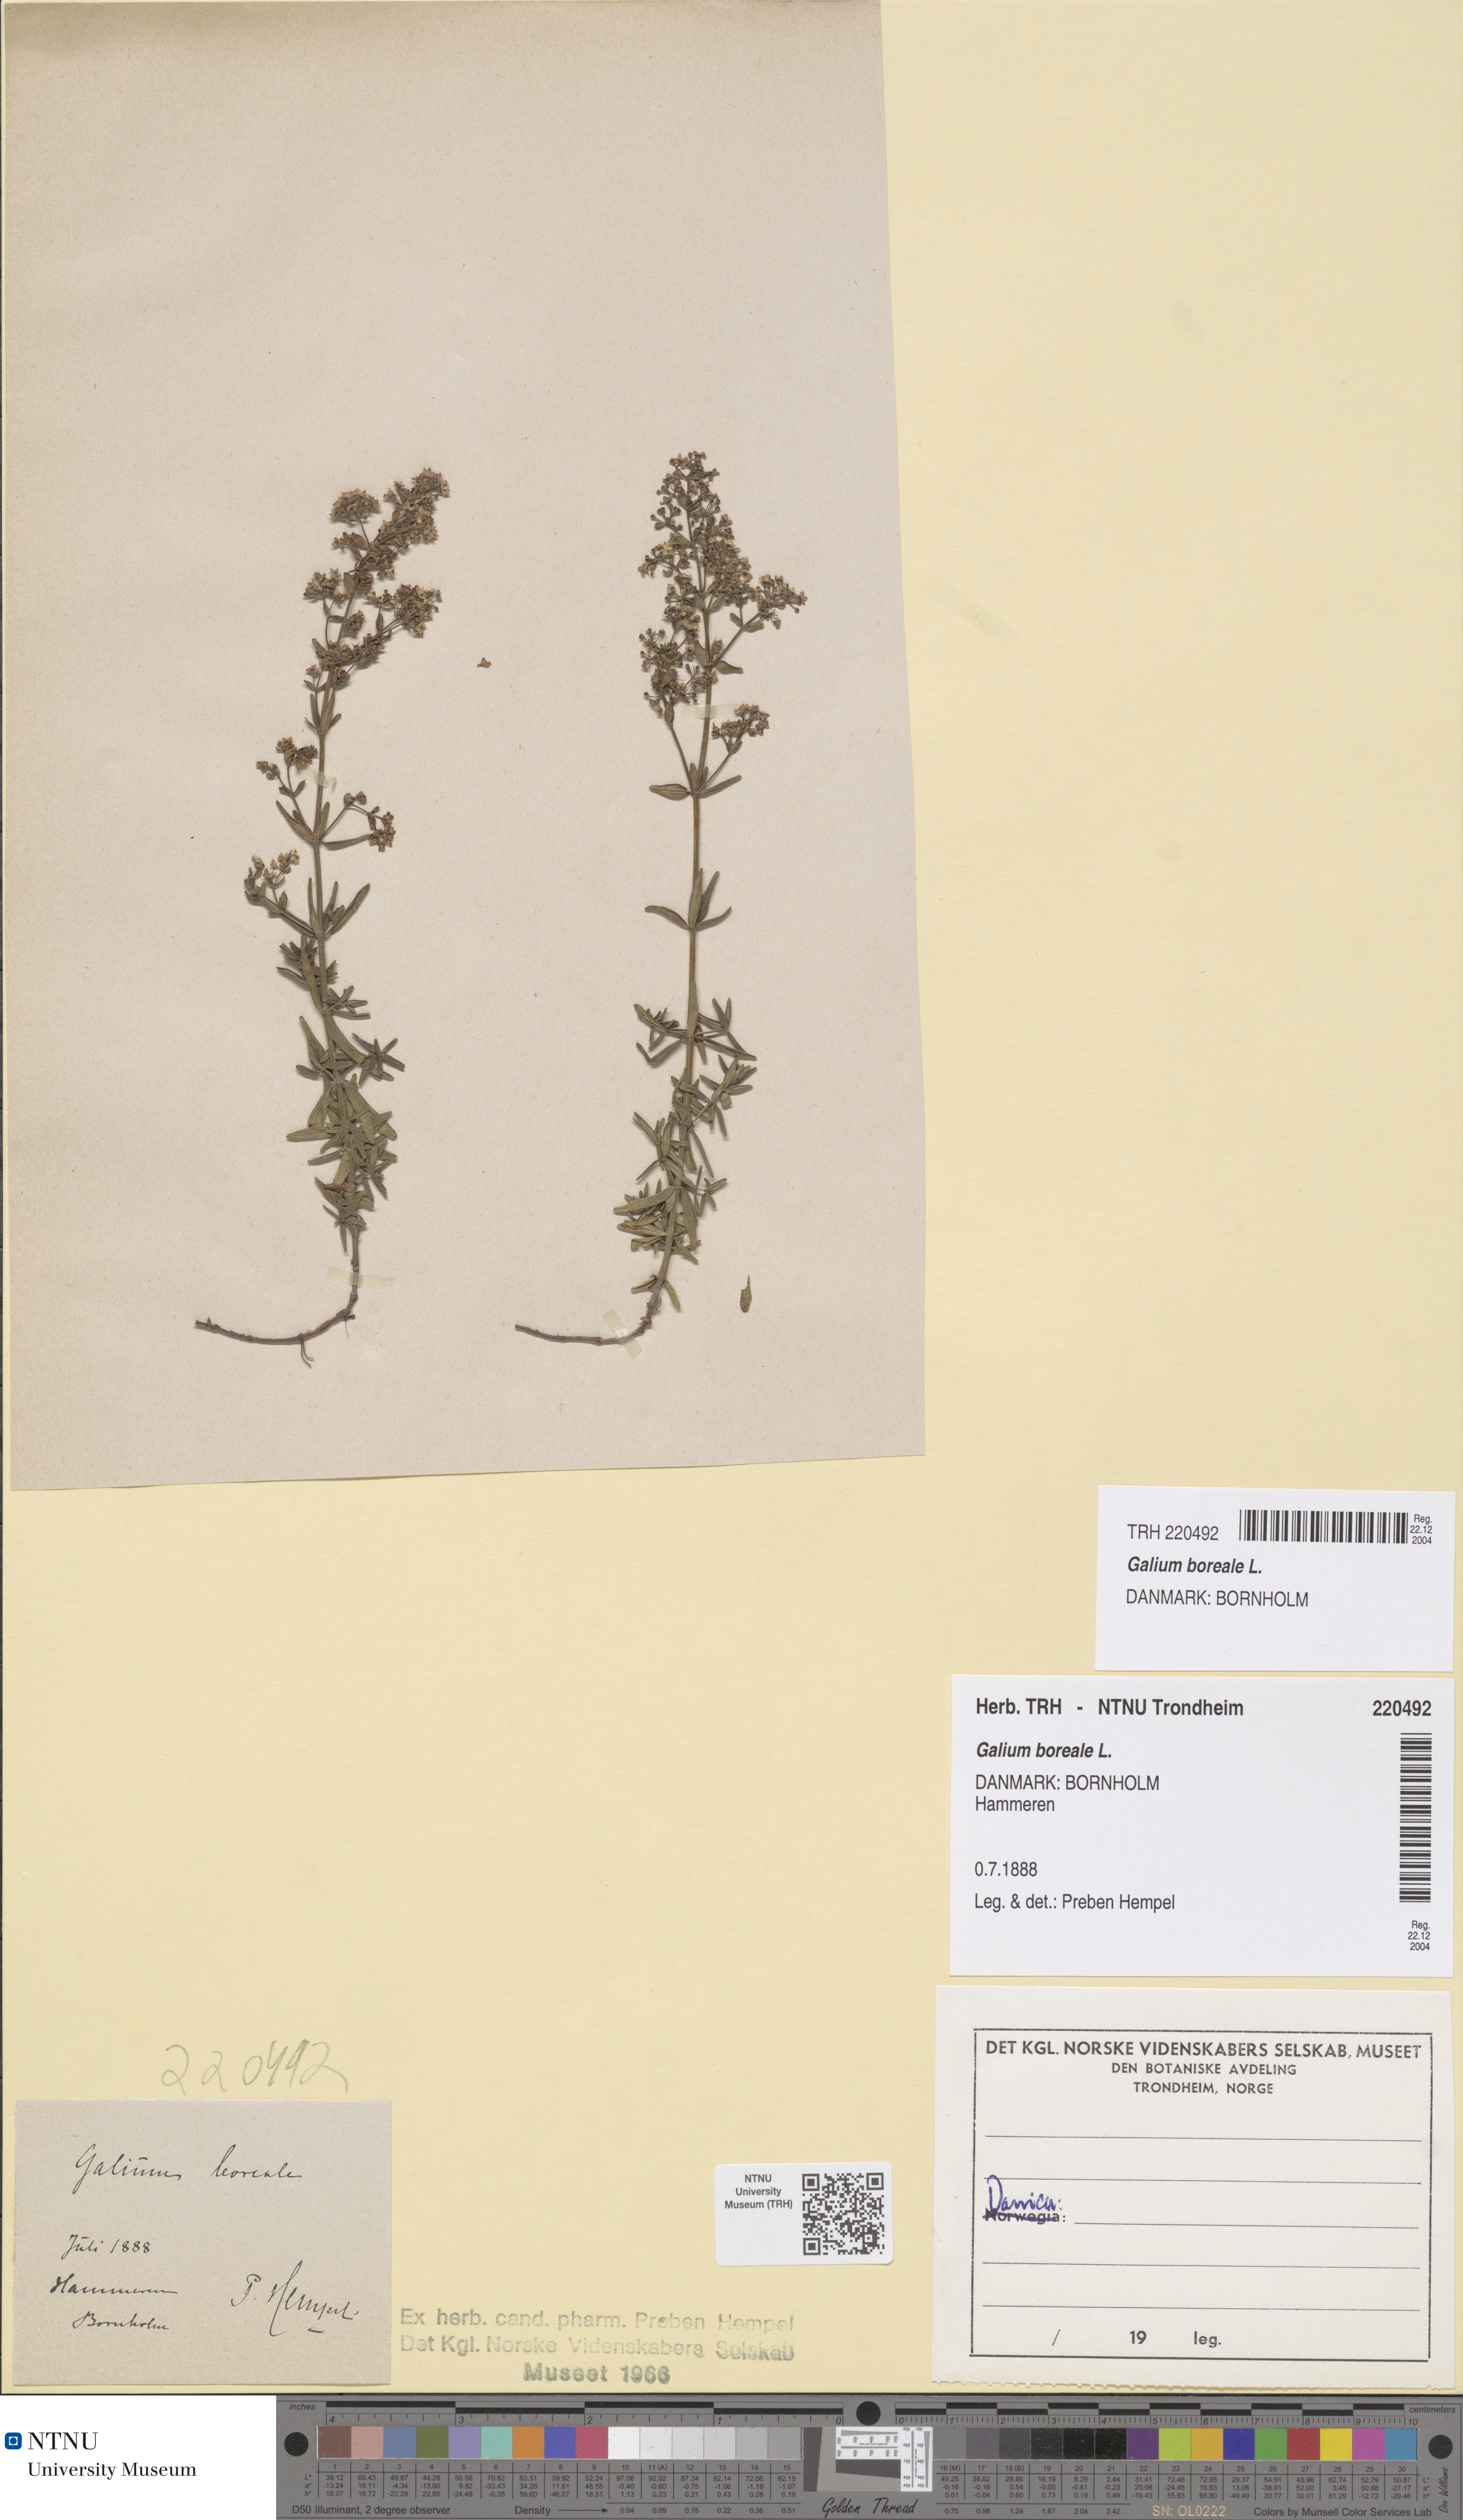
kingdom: Plantae
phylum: Tracheophyta
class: Magnoliopsida
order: Gentianales
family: Rubiaceae
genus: Galium
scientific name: Galium boreale
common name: Northern bedstraw
